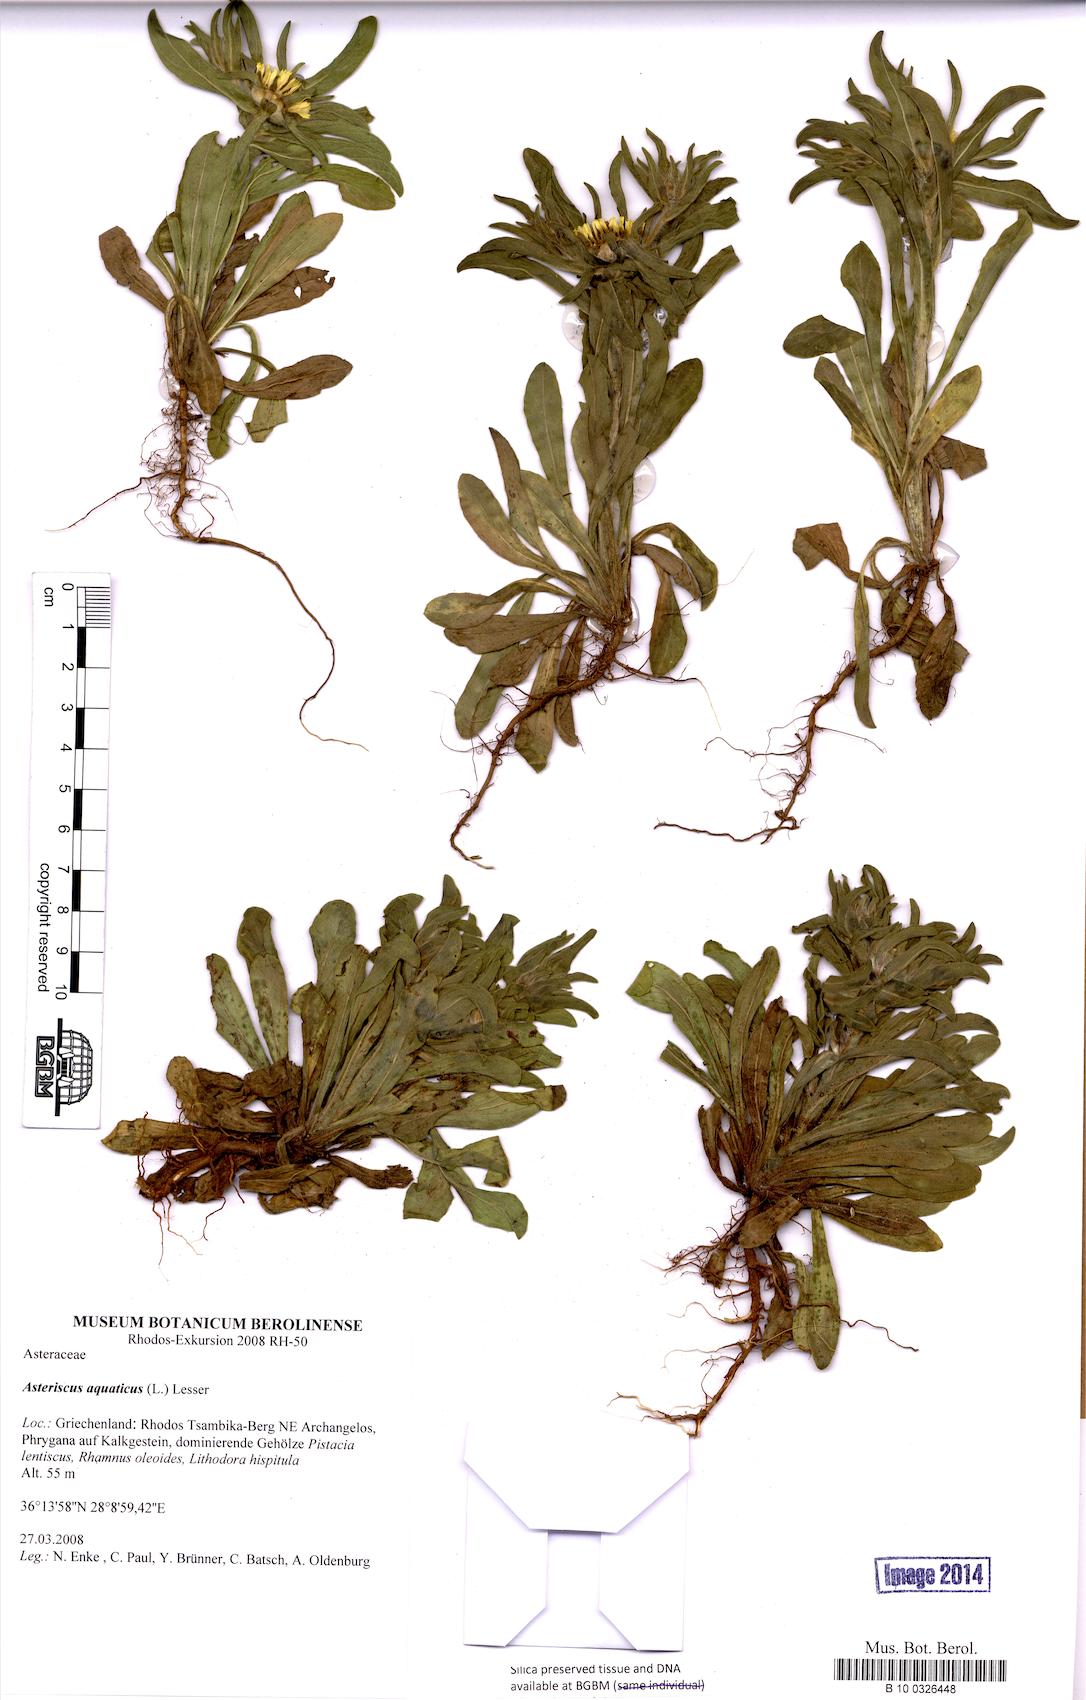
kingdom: Plantae
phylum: Tracheophyta
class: Magnoliopsida
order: Asterales
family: Asteraceae
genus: Asteriscus
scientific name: Asteriscus aquaticus
